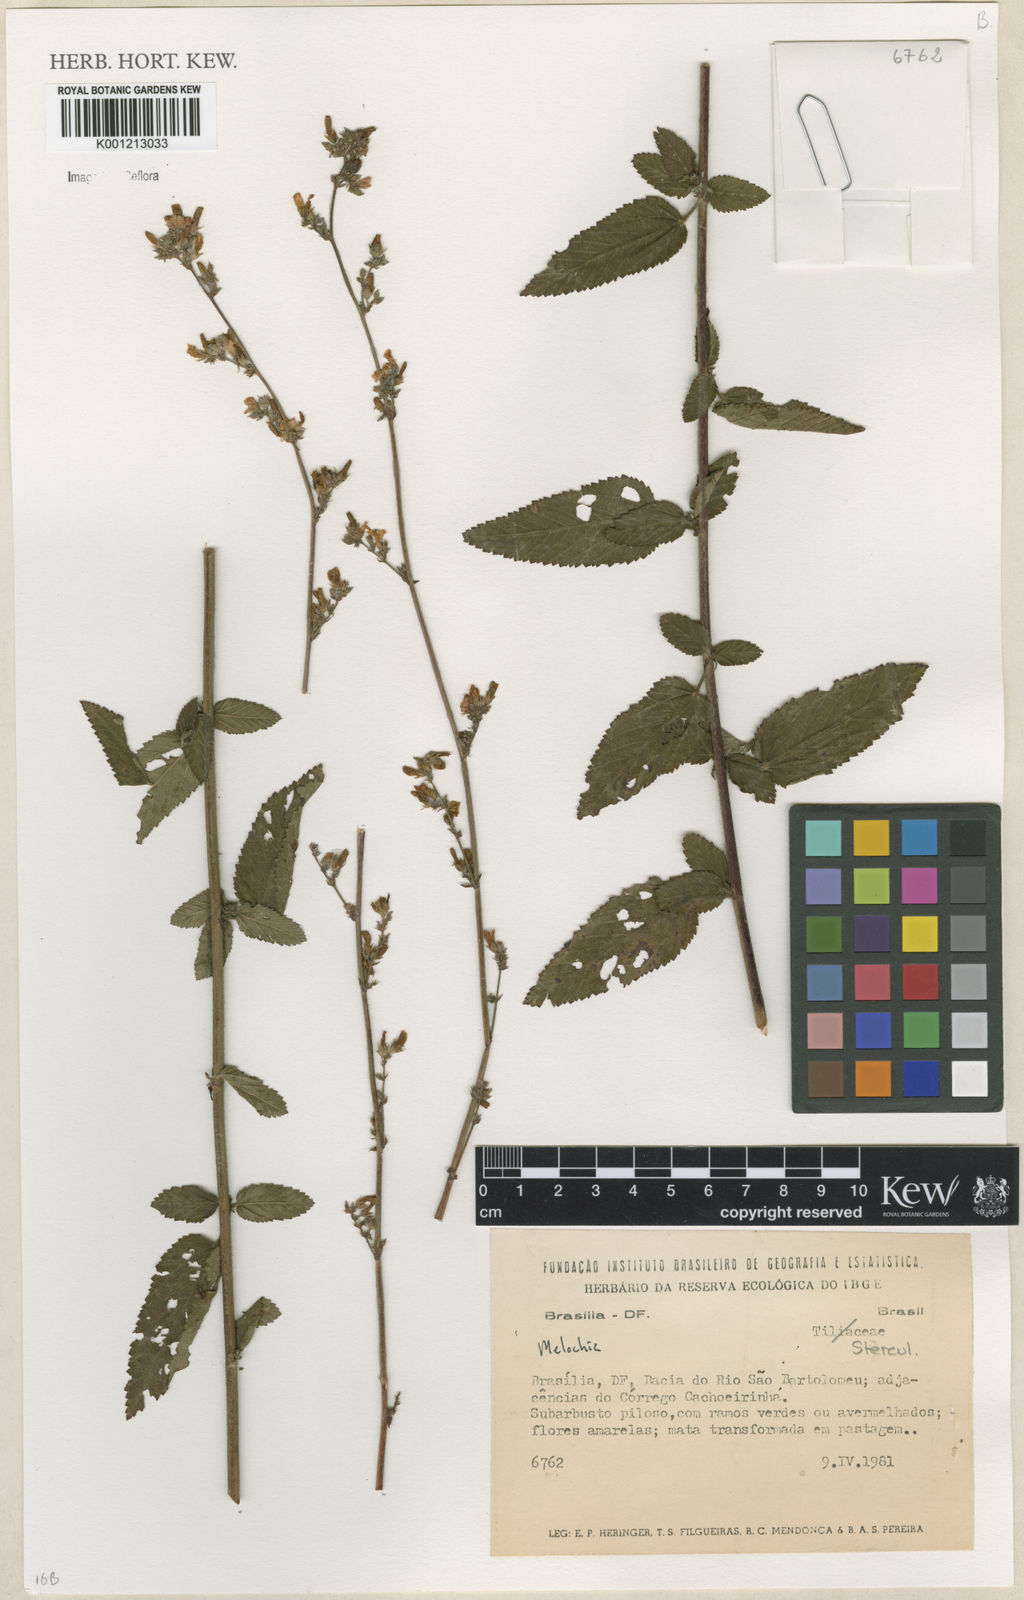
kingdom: Plantae
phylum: Tracheophyta
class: Magnoliopsida
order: Malvales
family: Malvaceae
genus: Melochia
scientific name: Melochia
